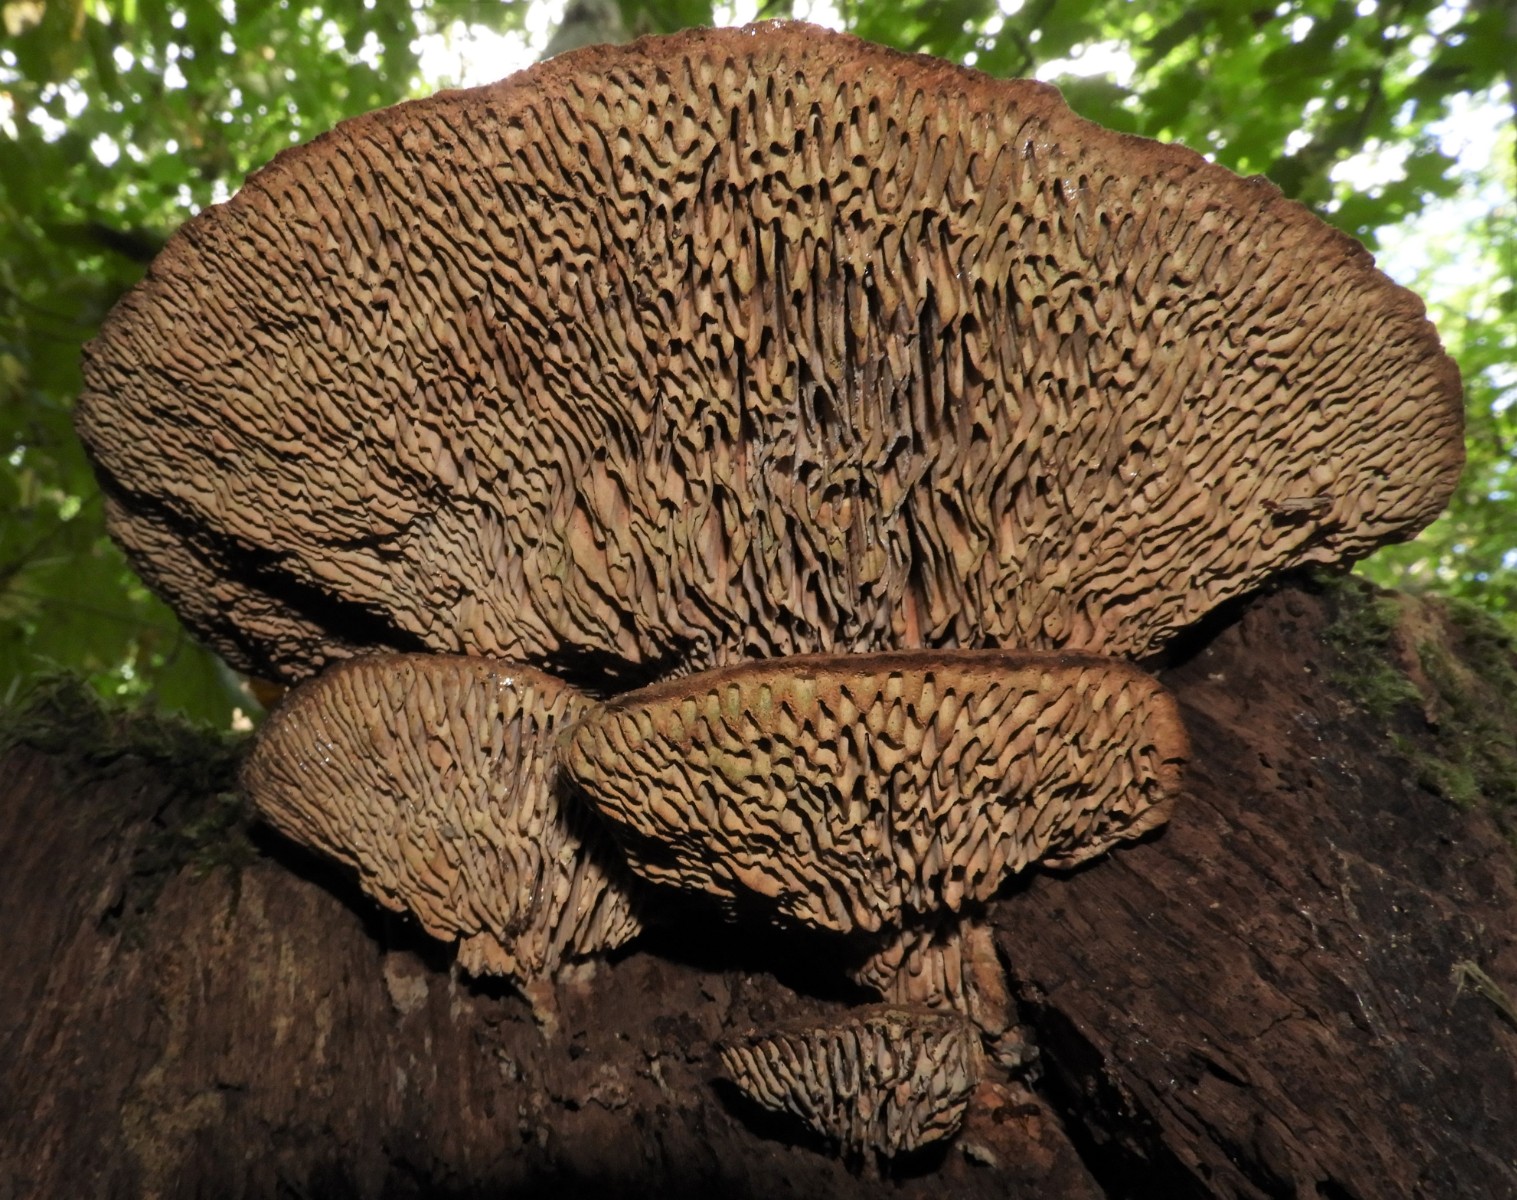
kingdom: Fungi
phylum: Basidiomycota
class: Agaricomycetes
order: Polyporales
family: Fomitopsidaceae
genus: Daedalea
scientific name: Daedalea quercina
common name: ege-labyrintsvamp
